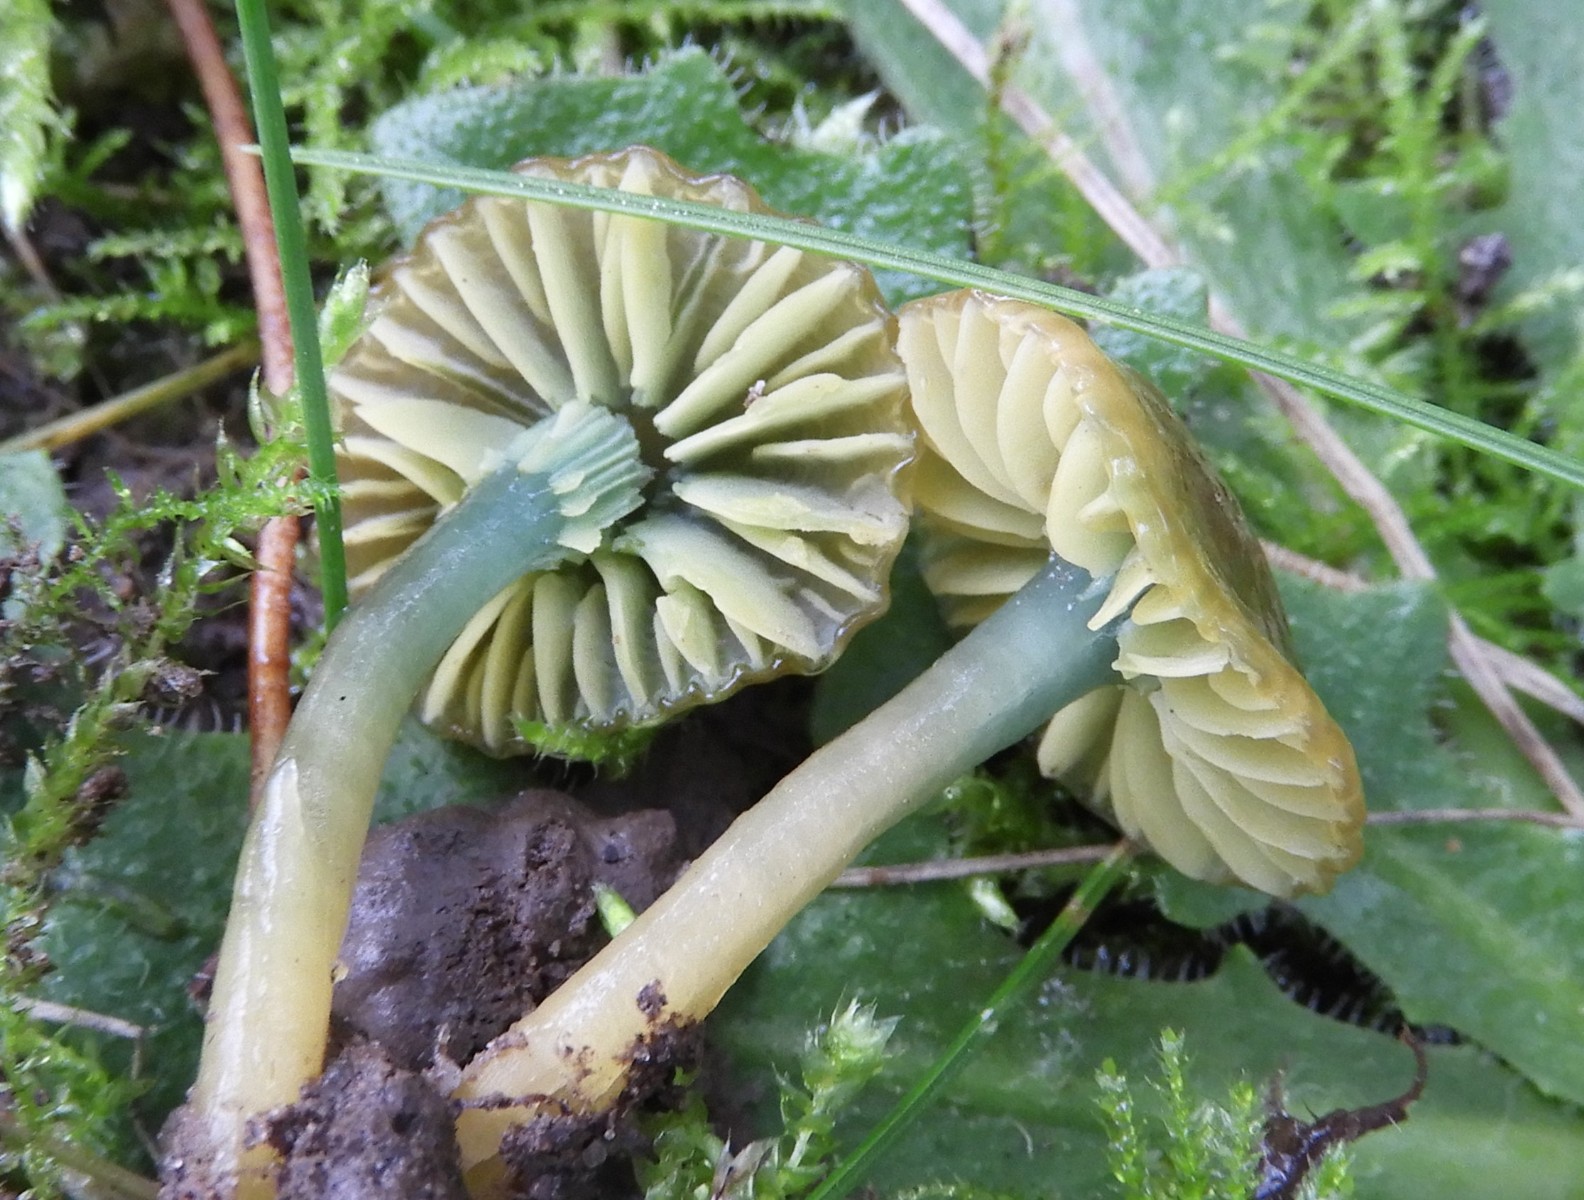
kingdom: Fungi
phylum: Basidiomycota
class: Agaricomycetes
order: Agaricales
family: Hygrophoraceae
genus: Gliophorus
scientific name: Gliophorus psittacinus
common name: papegøje-vokshat
